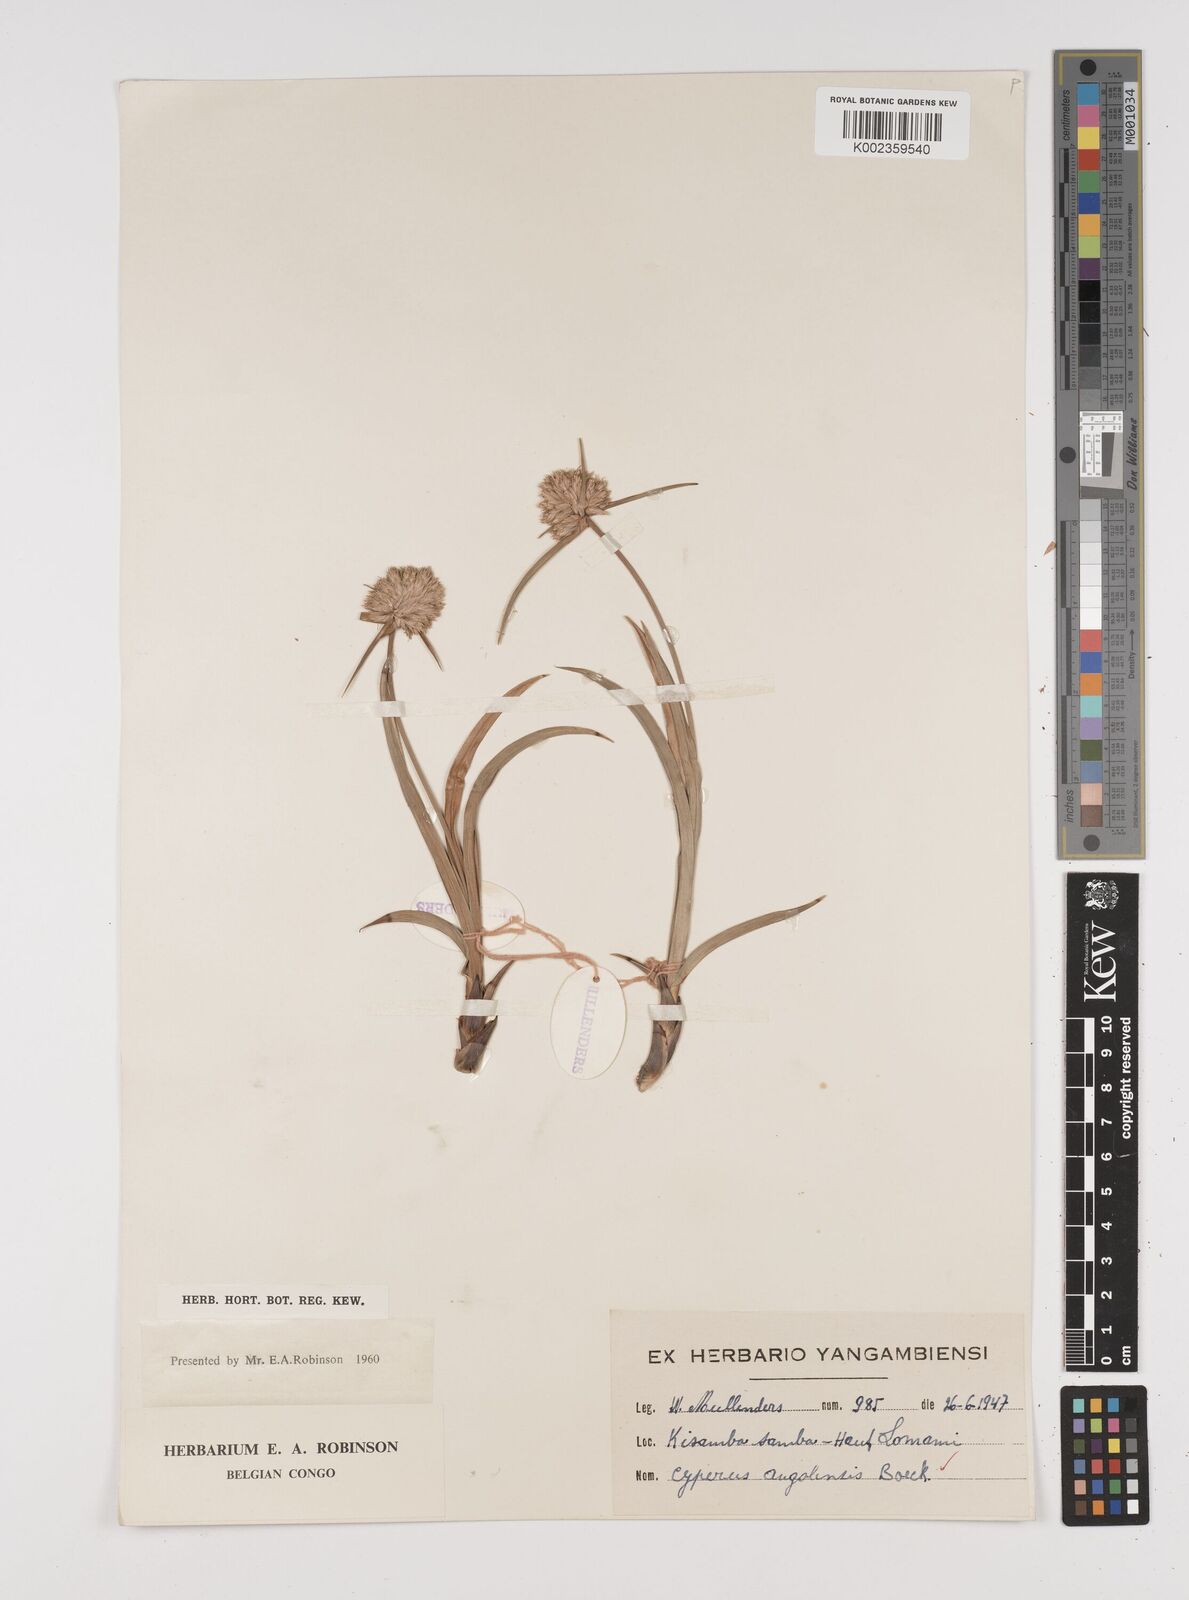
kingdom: Plantae
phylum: Tracheophyta
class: Liliopsida
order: Poales
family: Cyperaceae
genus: Cyperus
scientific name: Cyperus angolensis
